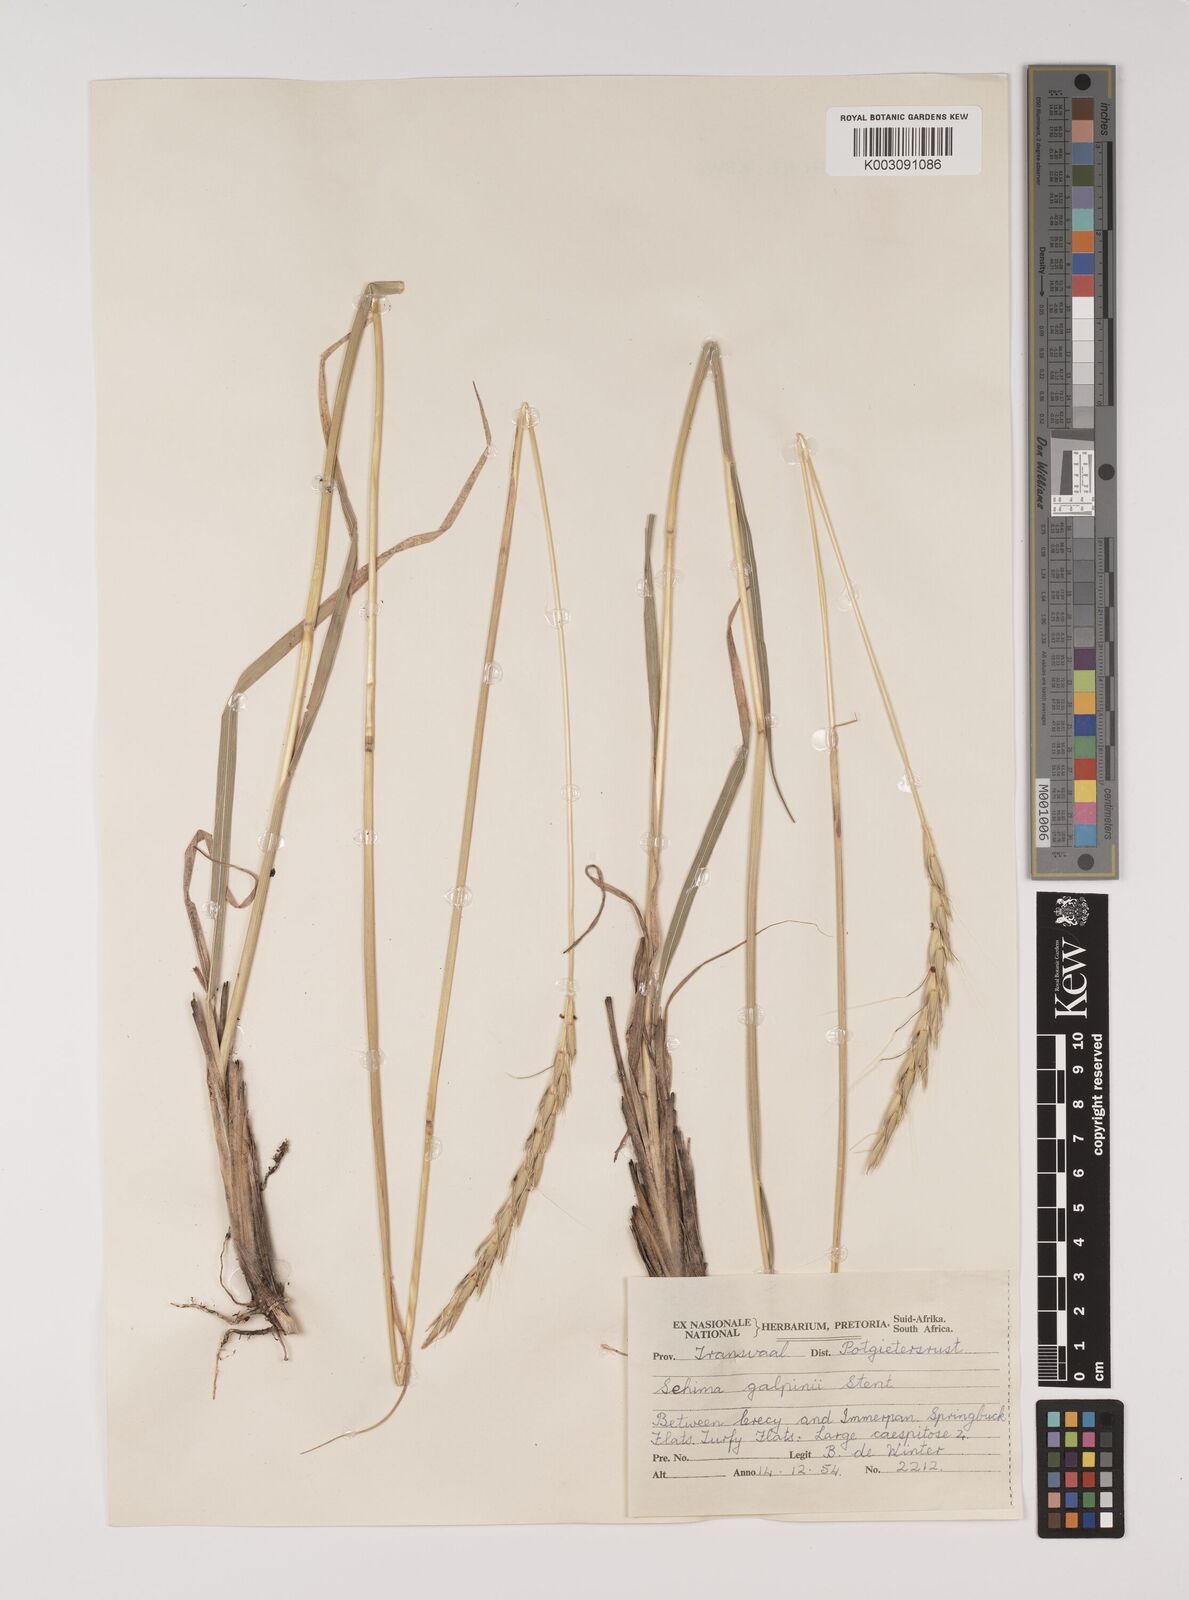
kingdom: Plantae
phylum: Tracheophyta
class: Liliopsida
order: Poales
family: Poaceae
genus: Sehima
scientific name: Sehima galpinii
